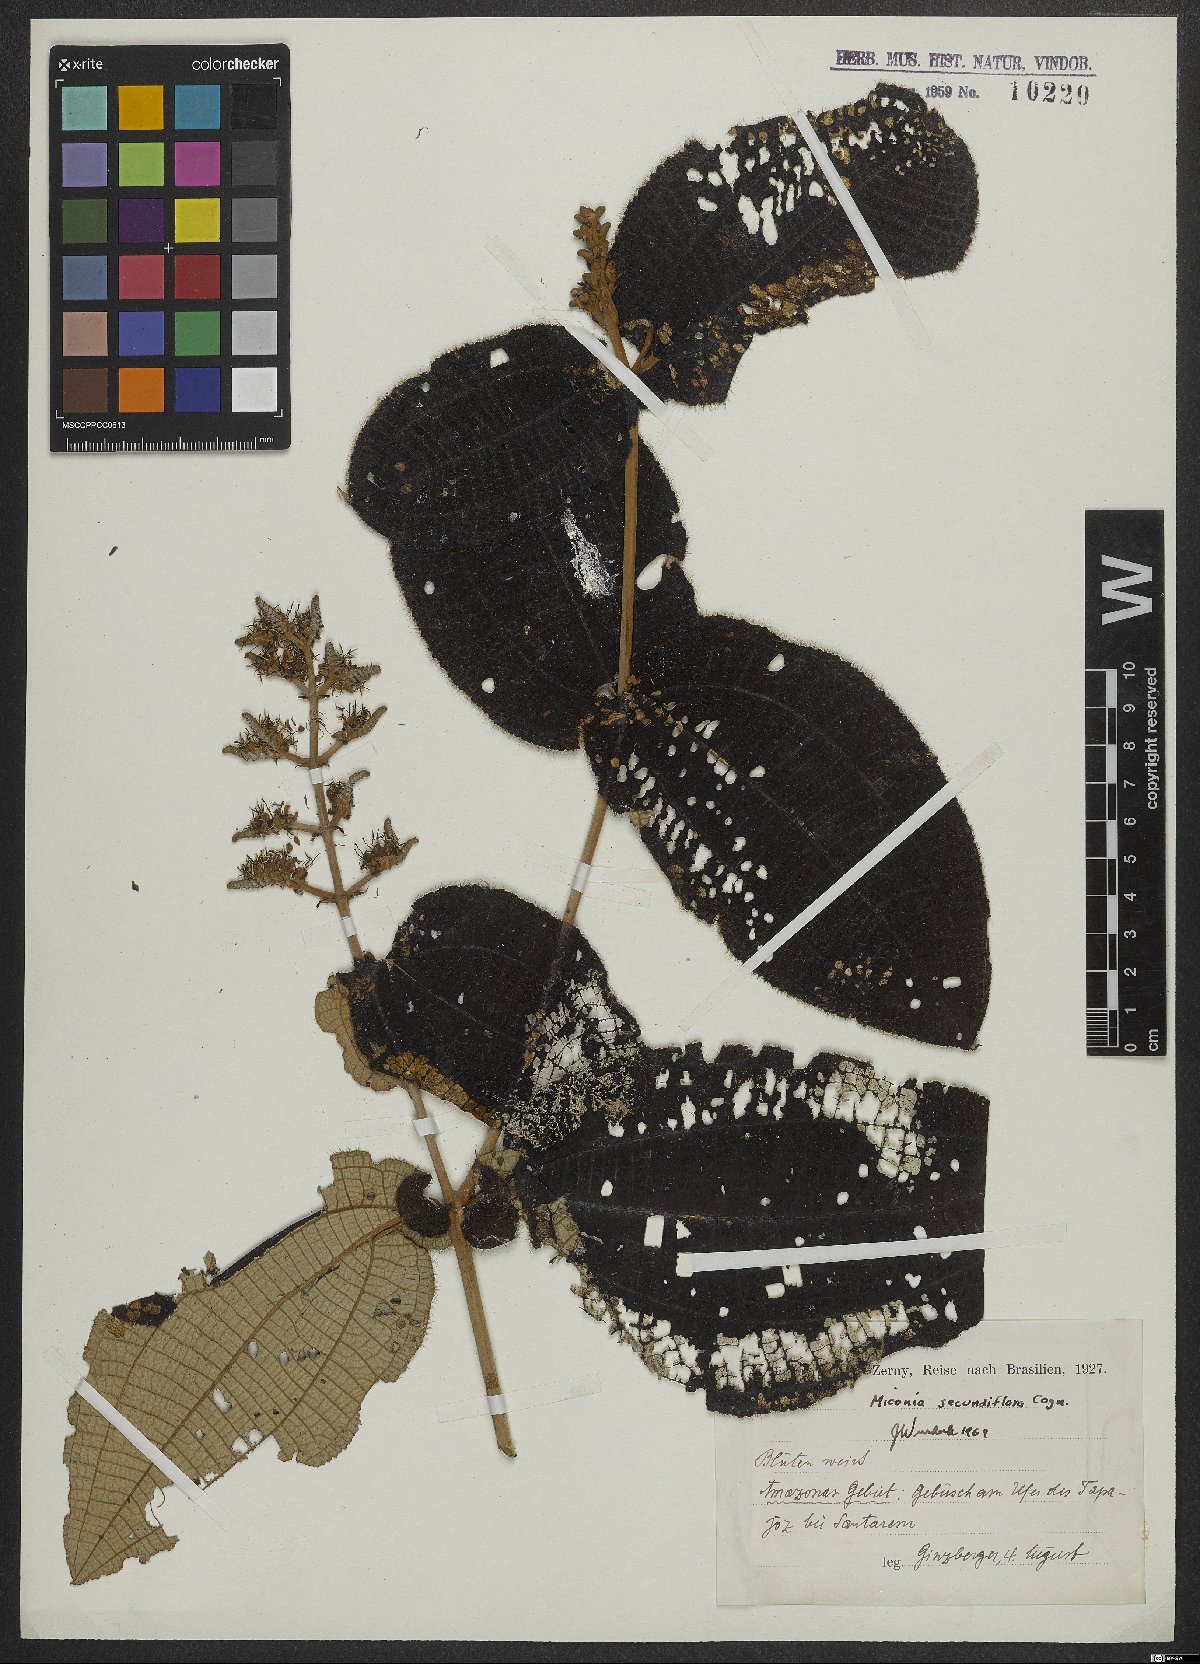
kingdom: Plantae
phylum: Tracheophyta
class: Magnoliopsida
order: Myrtales
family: Melastomataceae
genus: Miconia
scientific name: Miconia secundiflora
